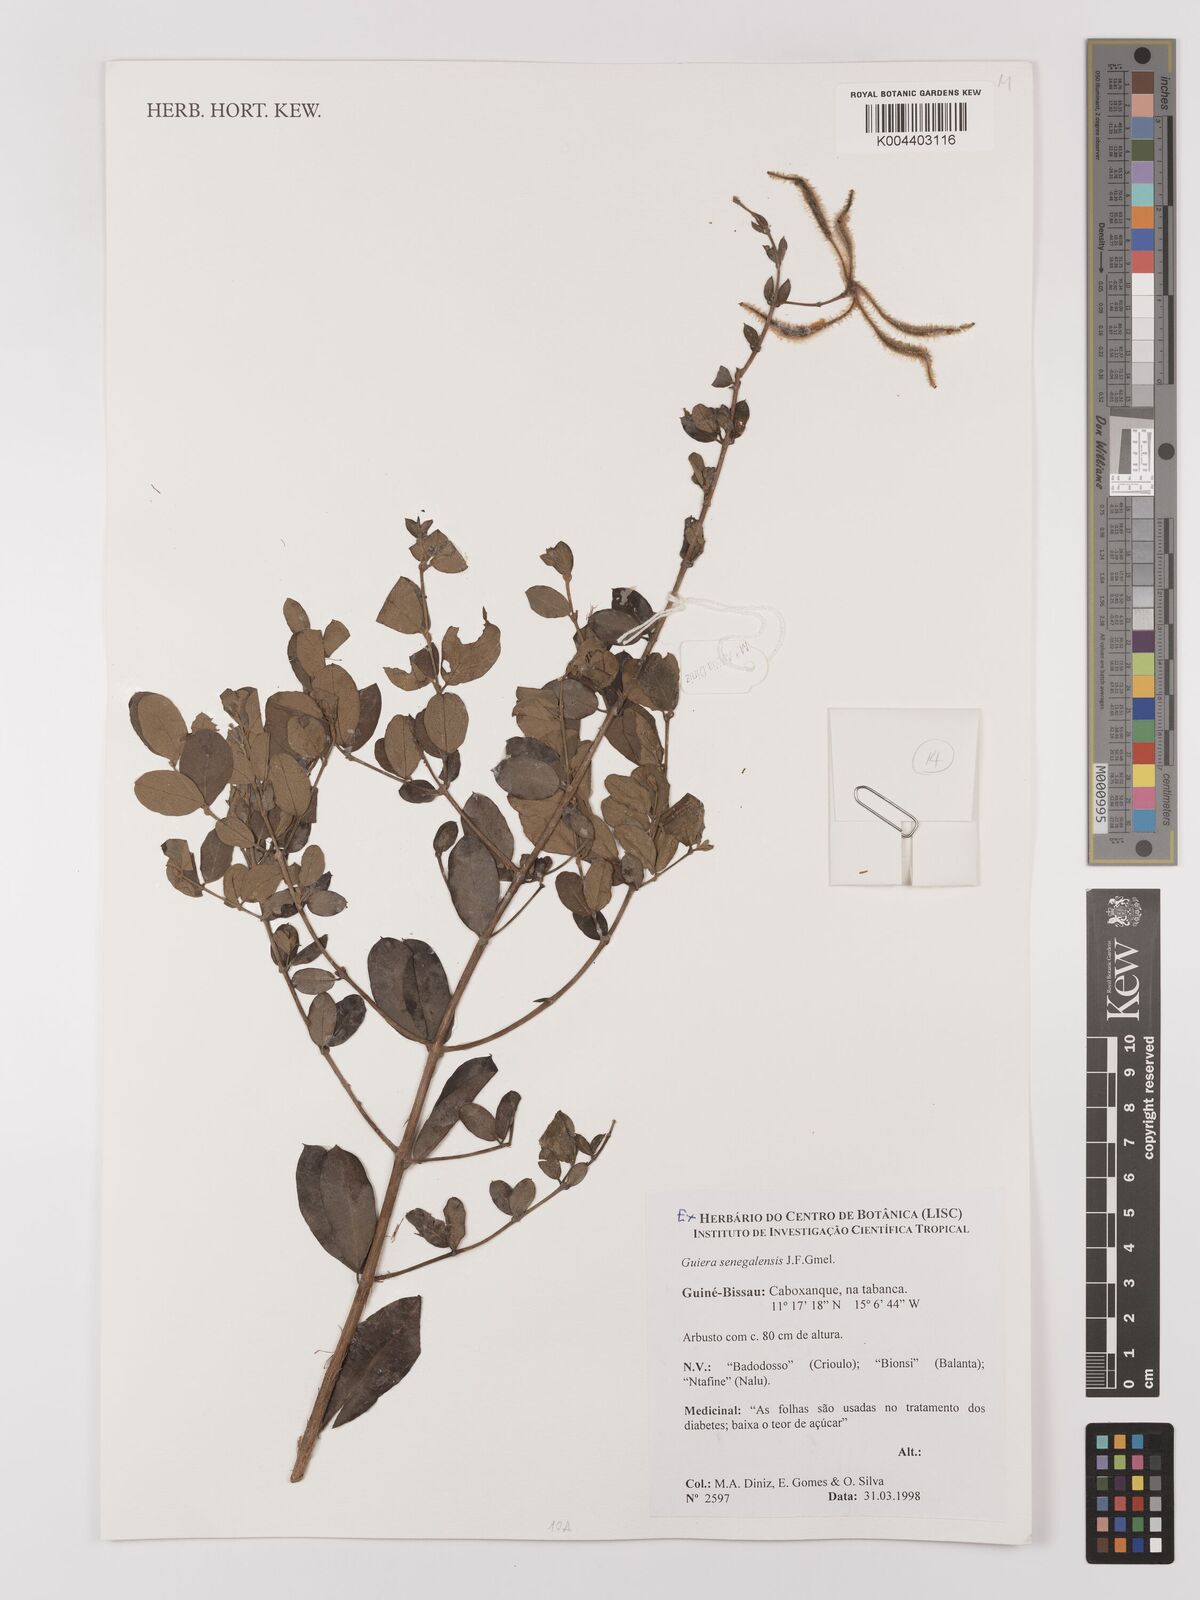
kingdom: Plantae
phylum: Tracheophyta
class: Magnoliopsida
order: Myrtales
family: Combretaceae
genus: Guiera
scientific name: Guiera
